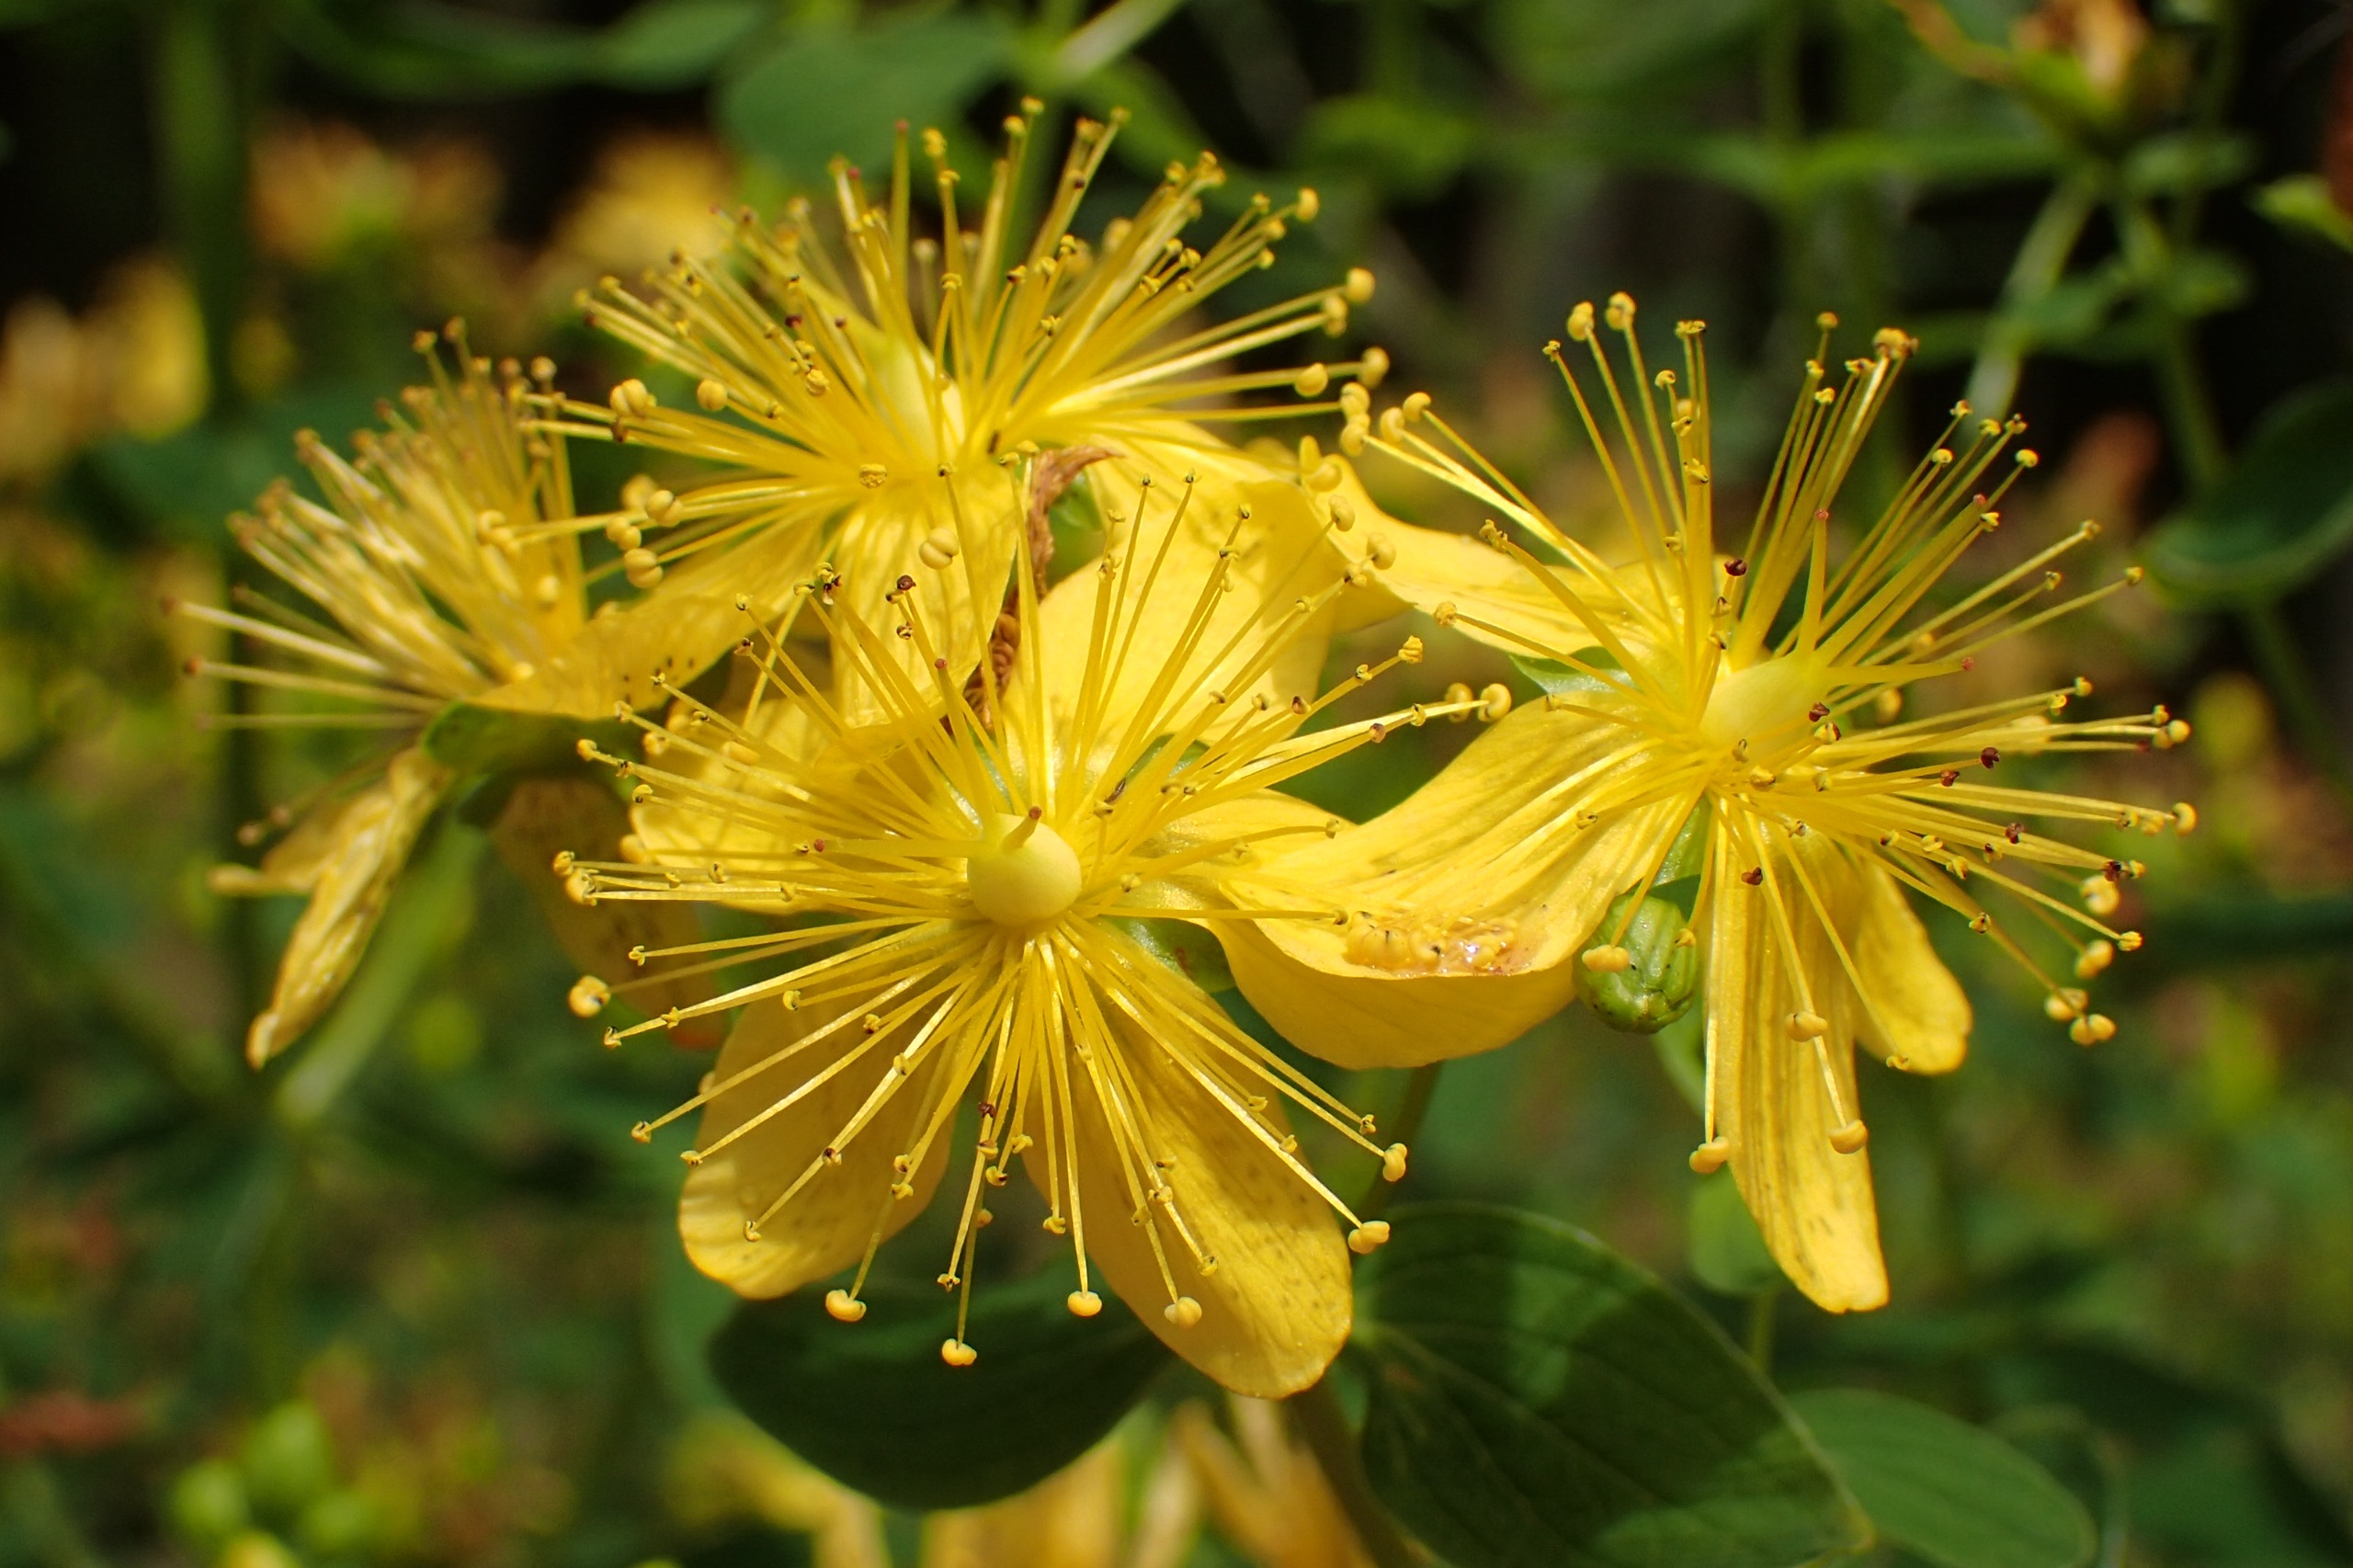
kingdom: Plantae
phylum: Tracheophyta
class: Magnoliopsida
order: Malpighiales
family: Hypericaceae
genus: Hypericum
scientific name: Hypericum maculatum
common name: Kantet perikon
